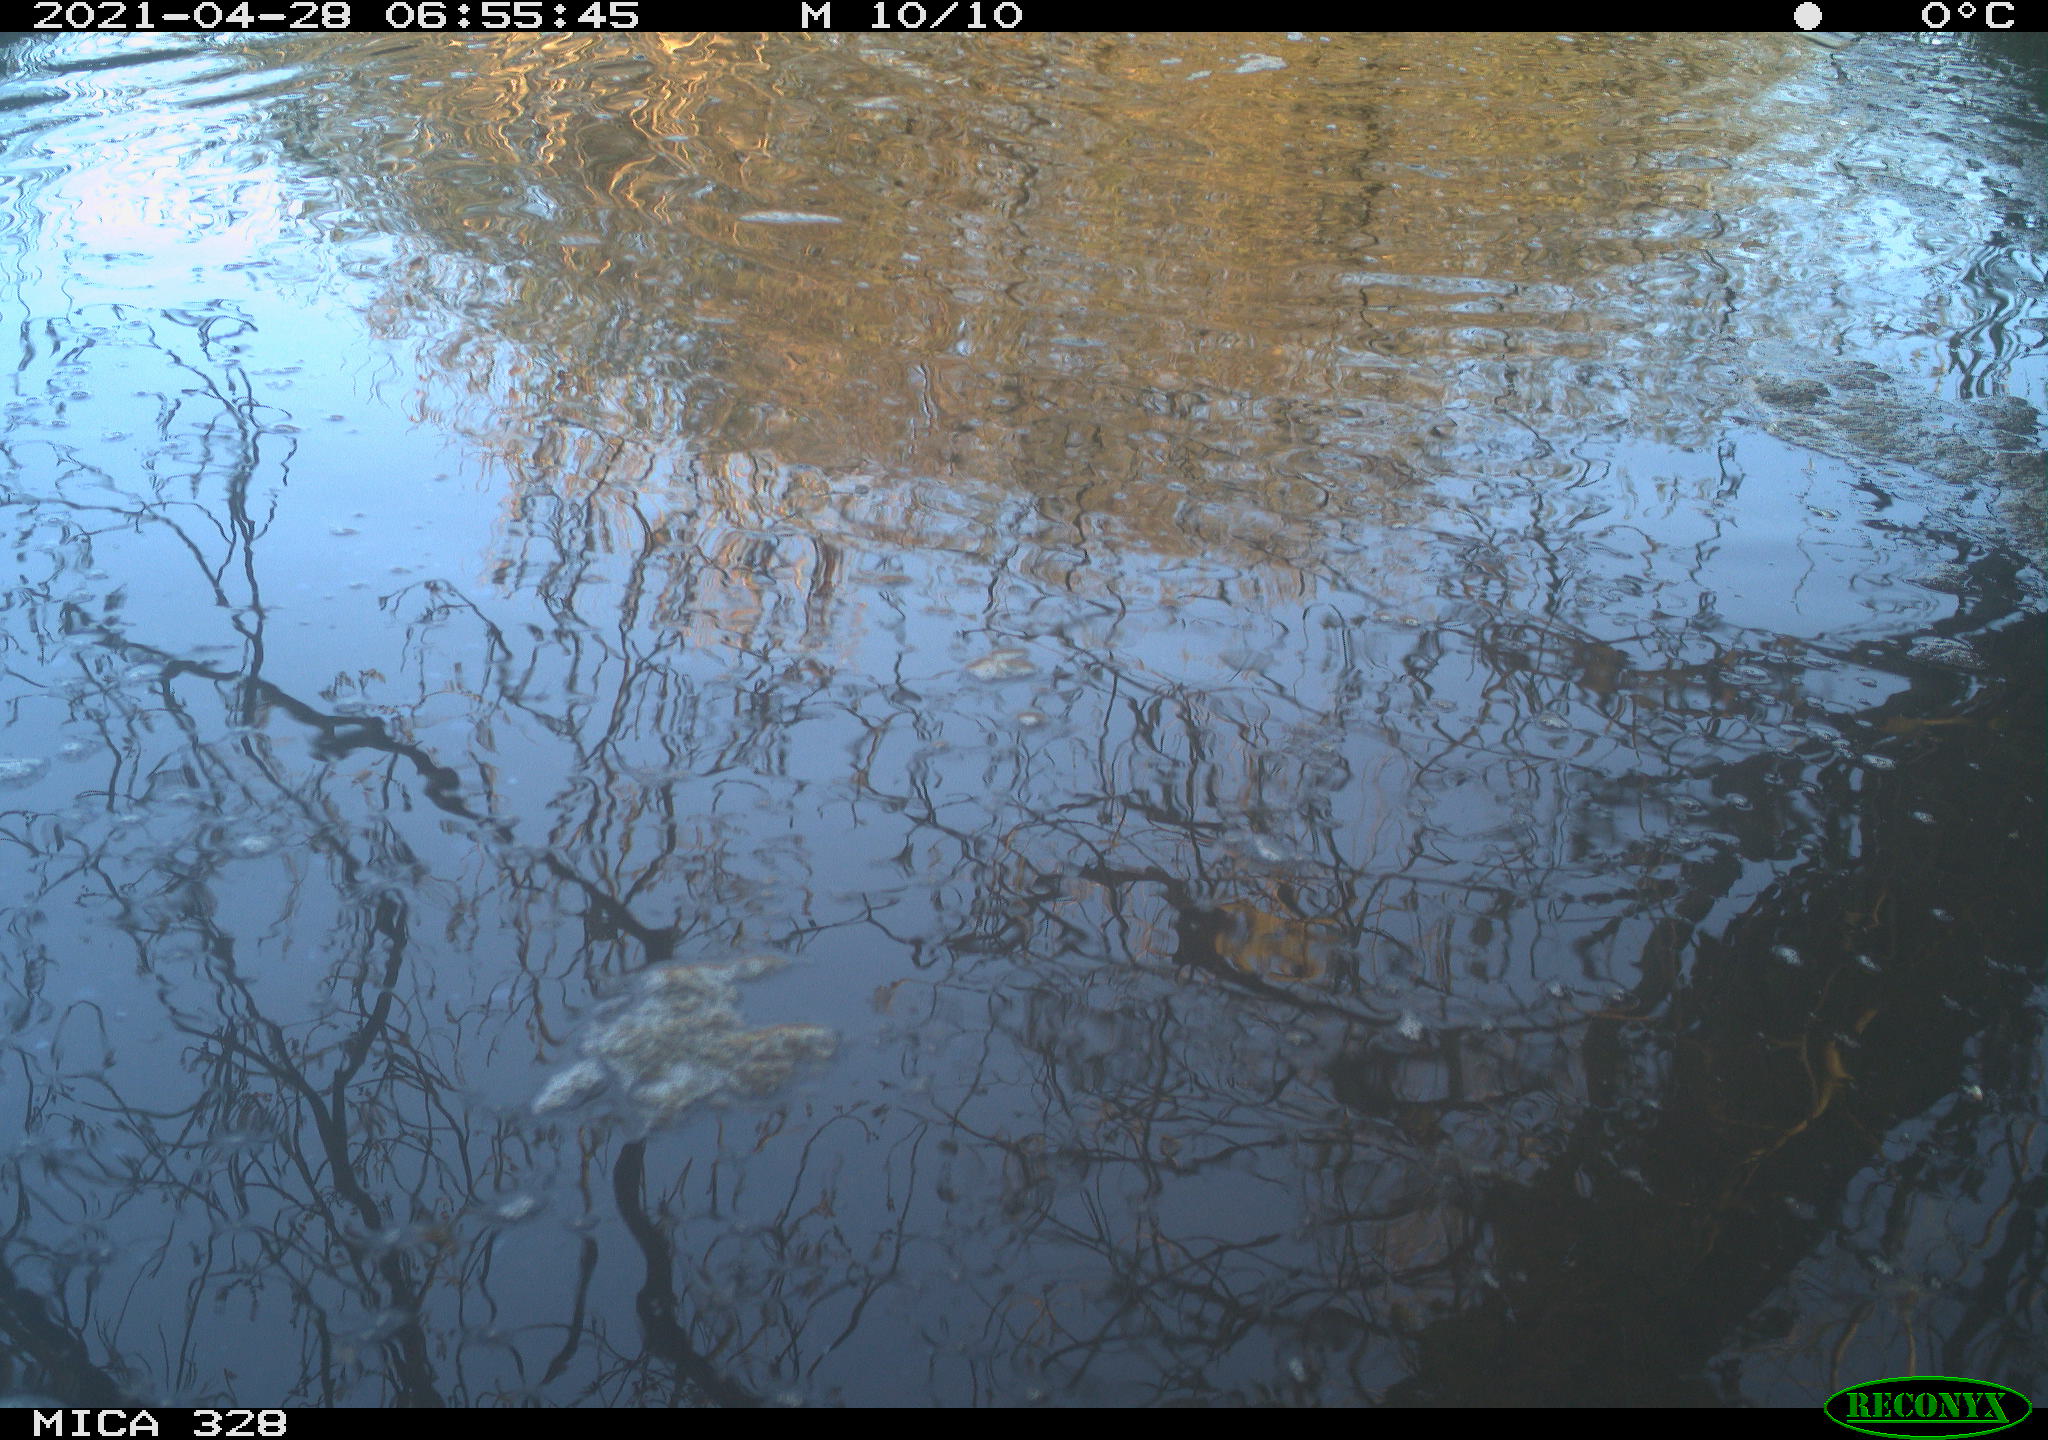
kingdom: Animalia
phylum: Chordata
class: Mammalia
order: Rodentia
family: Cricetidae
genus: Ondatra
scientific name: Ondatra zibethicus
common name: Muskrat
